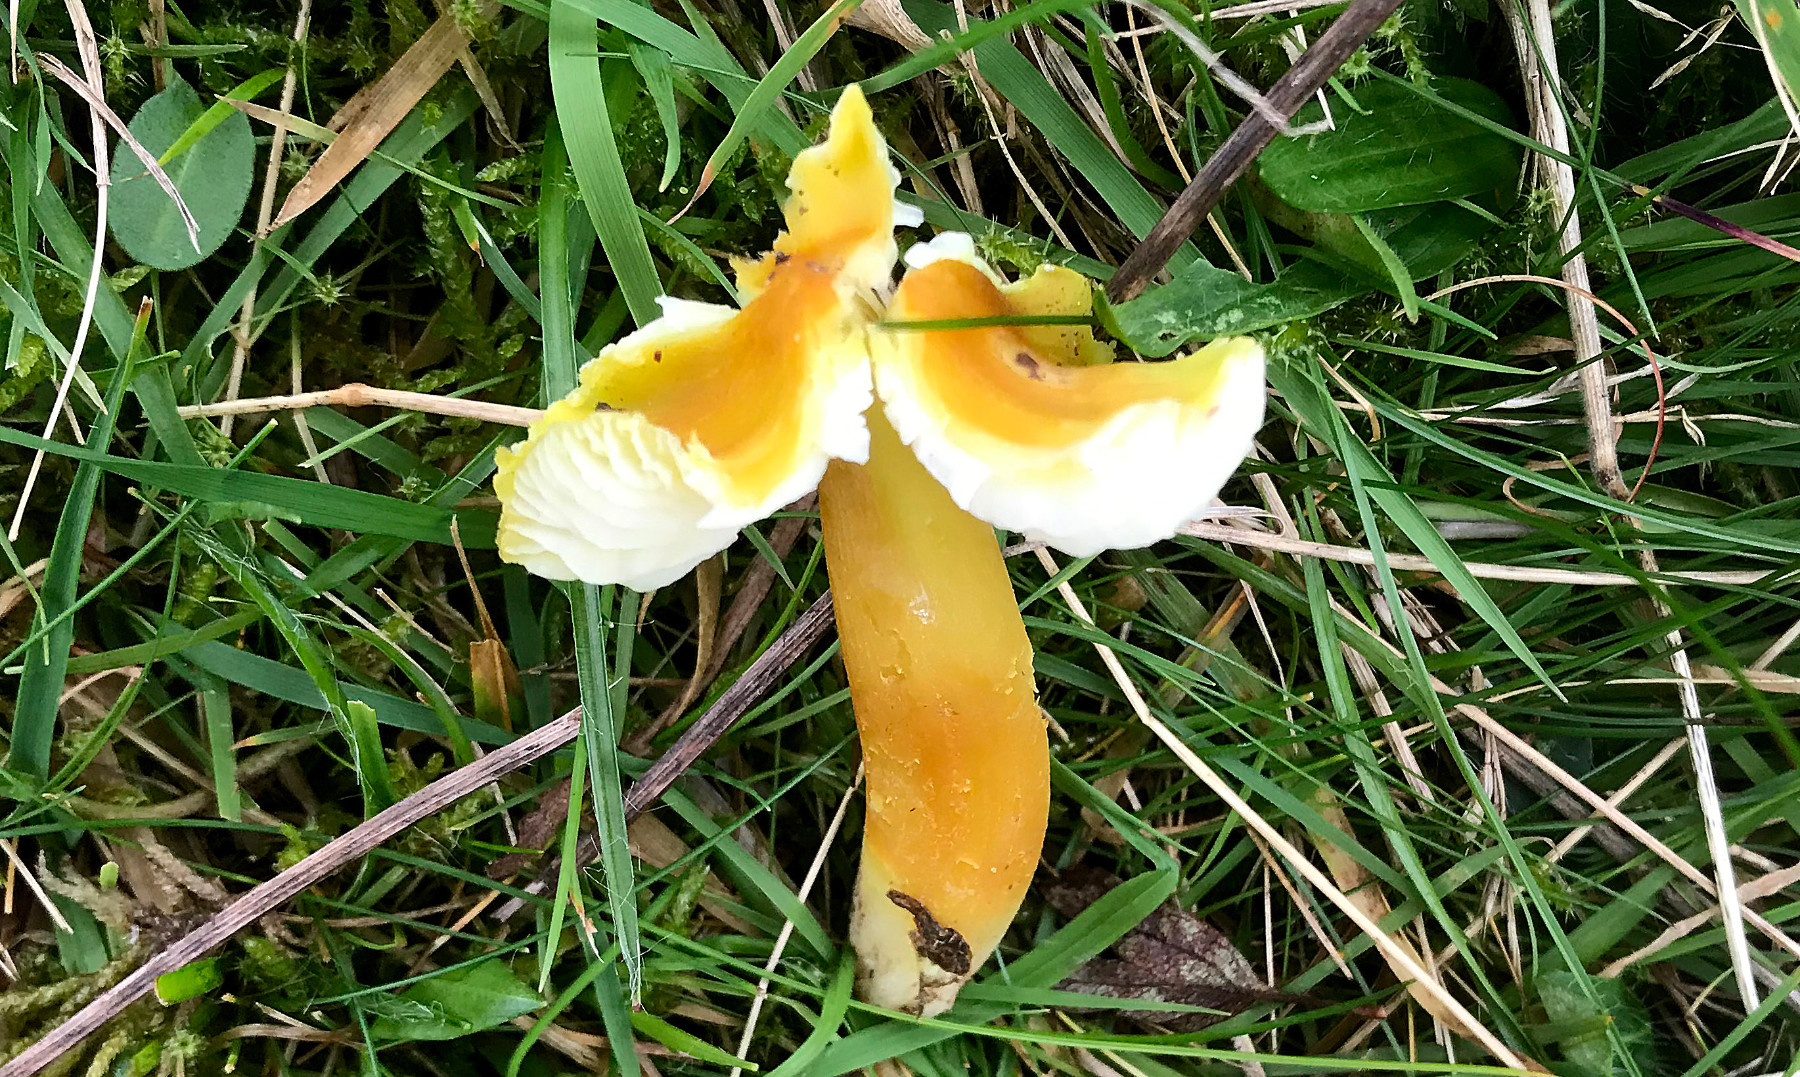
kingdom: Fungi
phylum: Basidiomycota
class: Agaricomycetes
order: Agaricales
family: Hygrophoraceae
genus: Hygrocybe
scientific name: Hygrocybe citrinovirens
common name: grøngul vokshat
